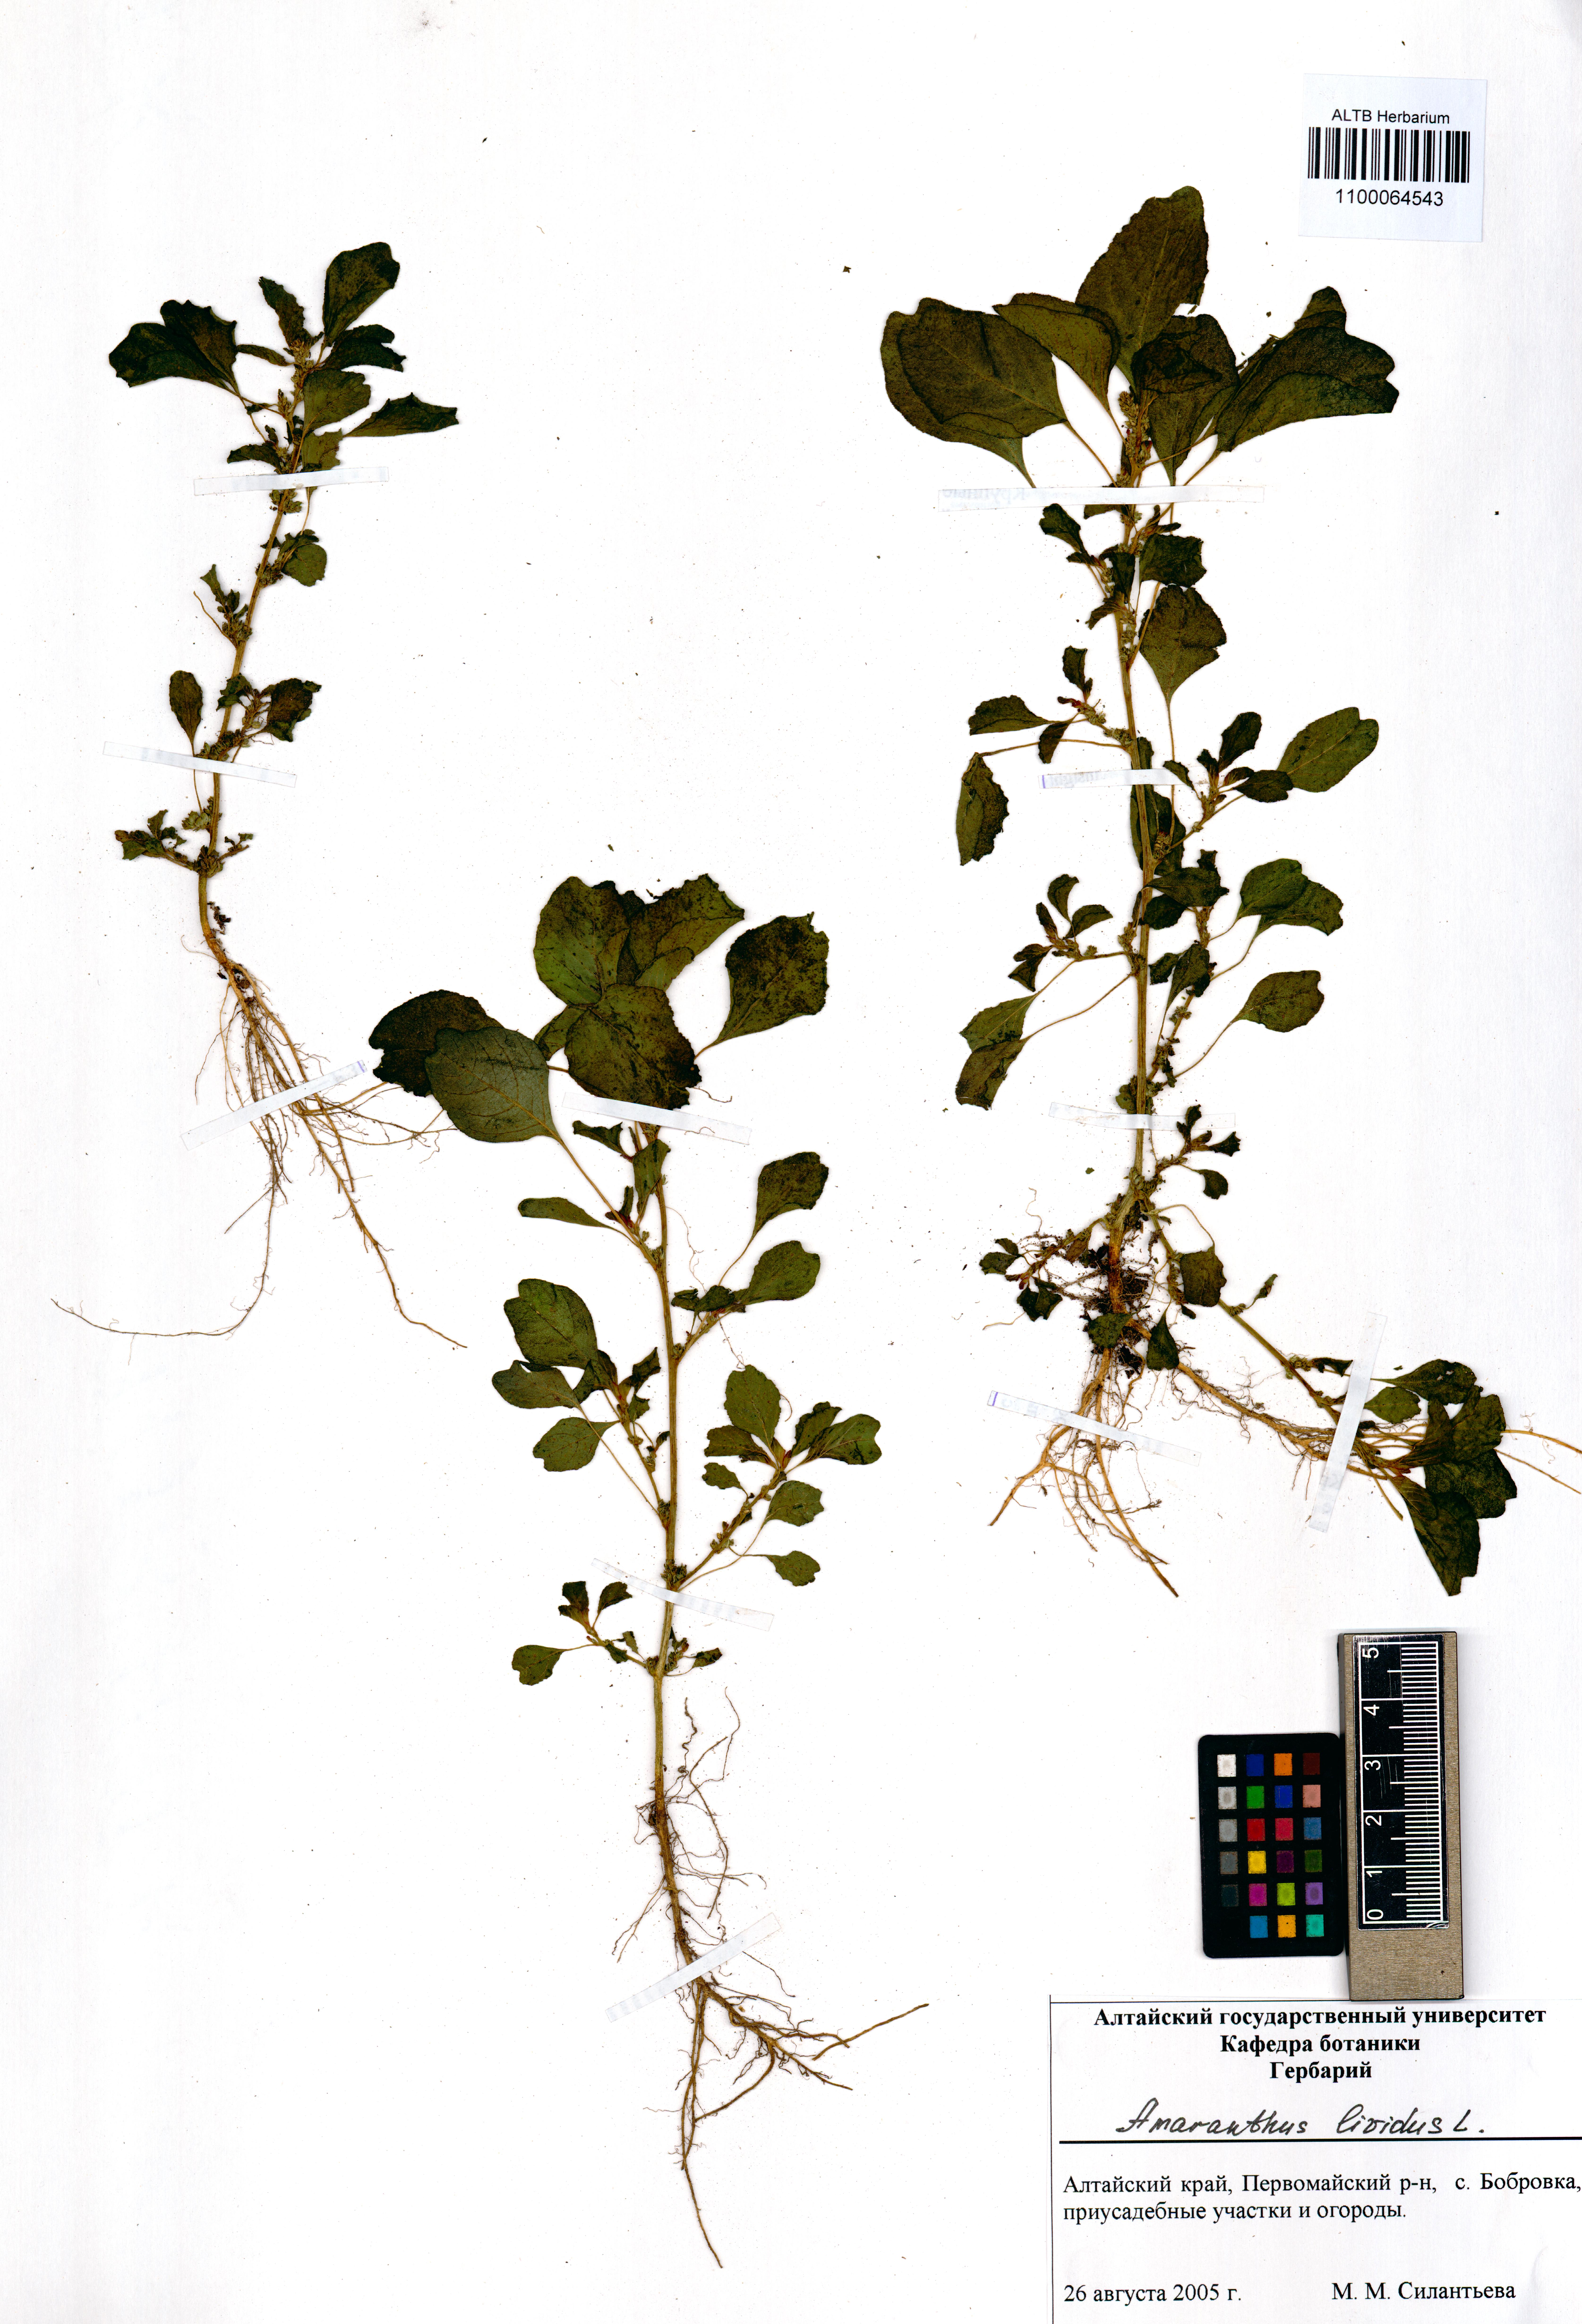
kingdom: Plantae
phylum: Tracheophyta
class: Magnoliopsida
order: Caryophyllales
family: Amaranthaceae
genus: Amaranthus
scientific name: Amaranthus blitum
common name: Purple amaranth
